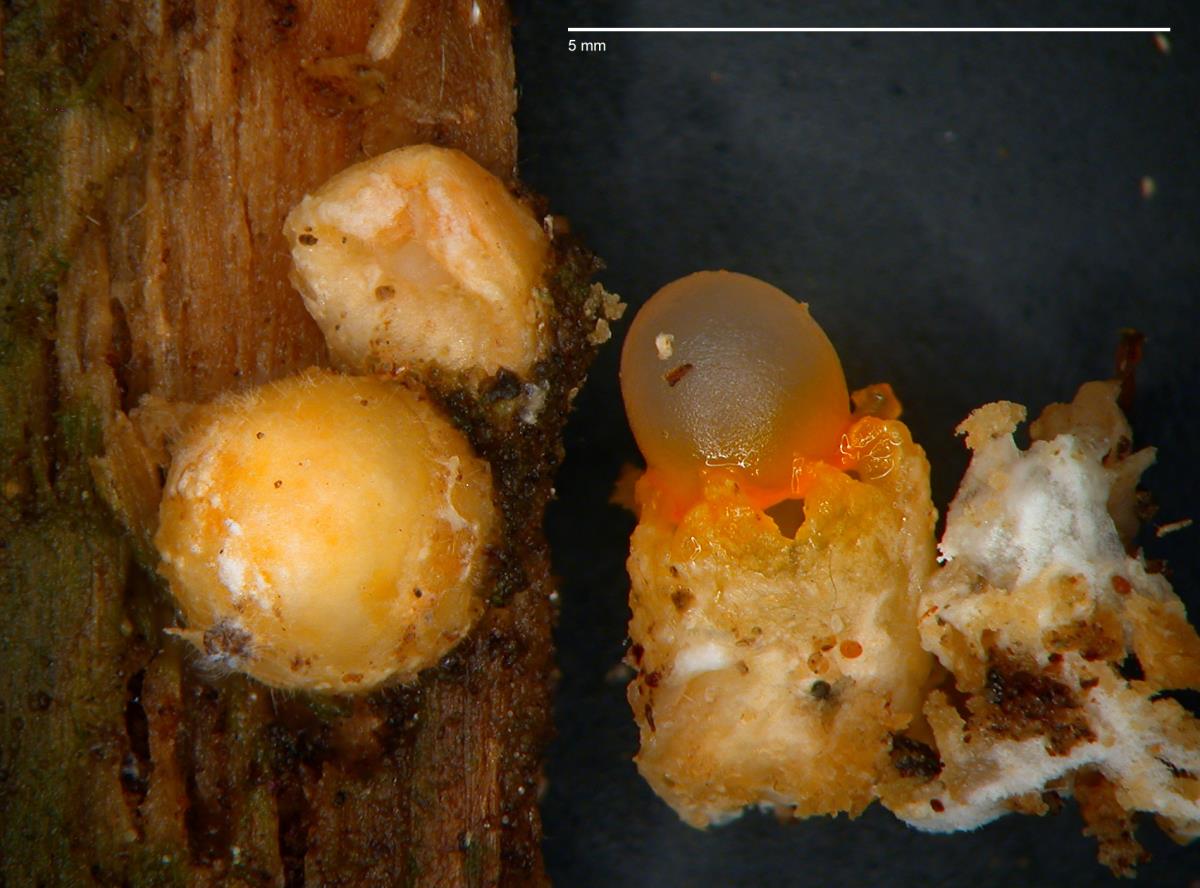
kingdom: Fungi
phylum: Basidiomycota
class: Agaricomycetes
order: Geastrales
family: Geastraceae
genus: Sphaerobolus
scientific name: Sphaerobolus stellatus
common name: Cannon fungus
